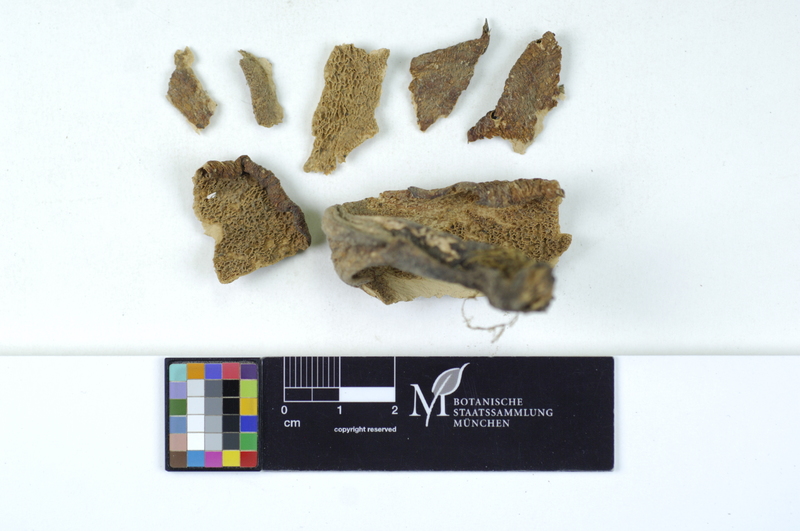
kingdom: Fungi
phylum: Basidiomycota
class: Agaricomycetes
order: Polyporales
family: Polyporaceae
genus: Cerioporus
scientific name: Cerioporus squamosus
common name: Dryad's saddle
